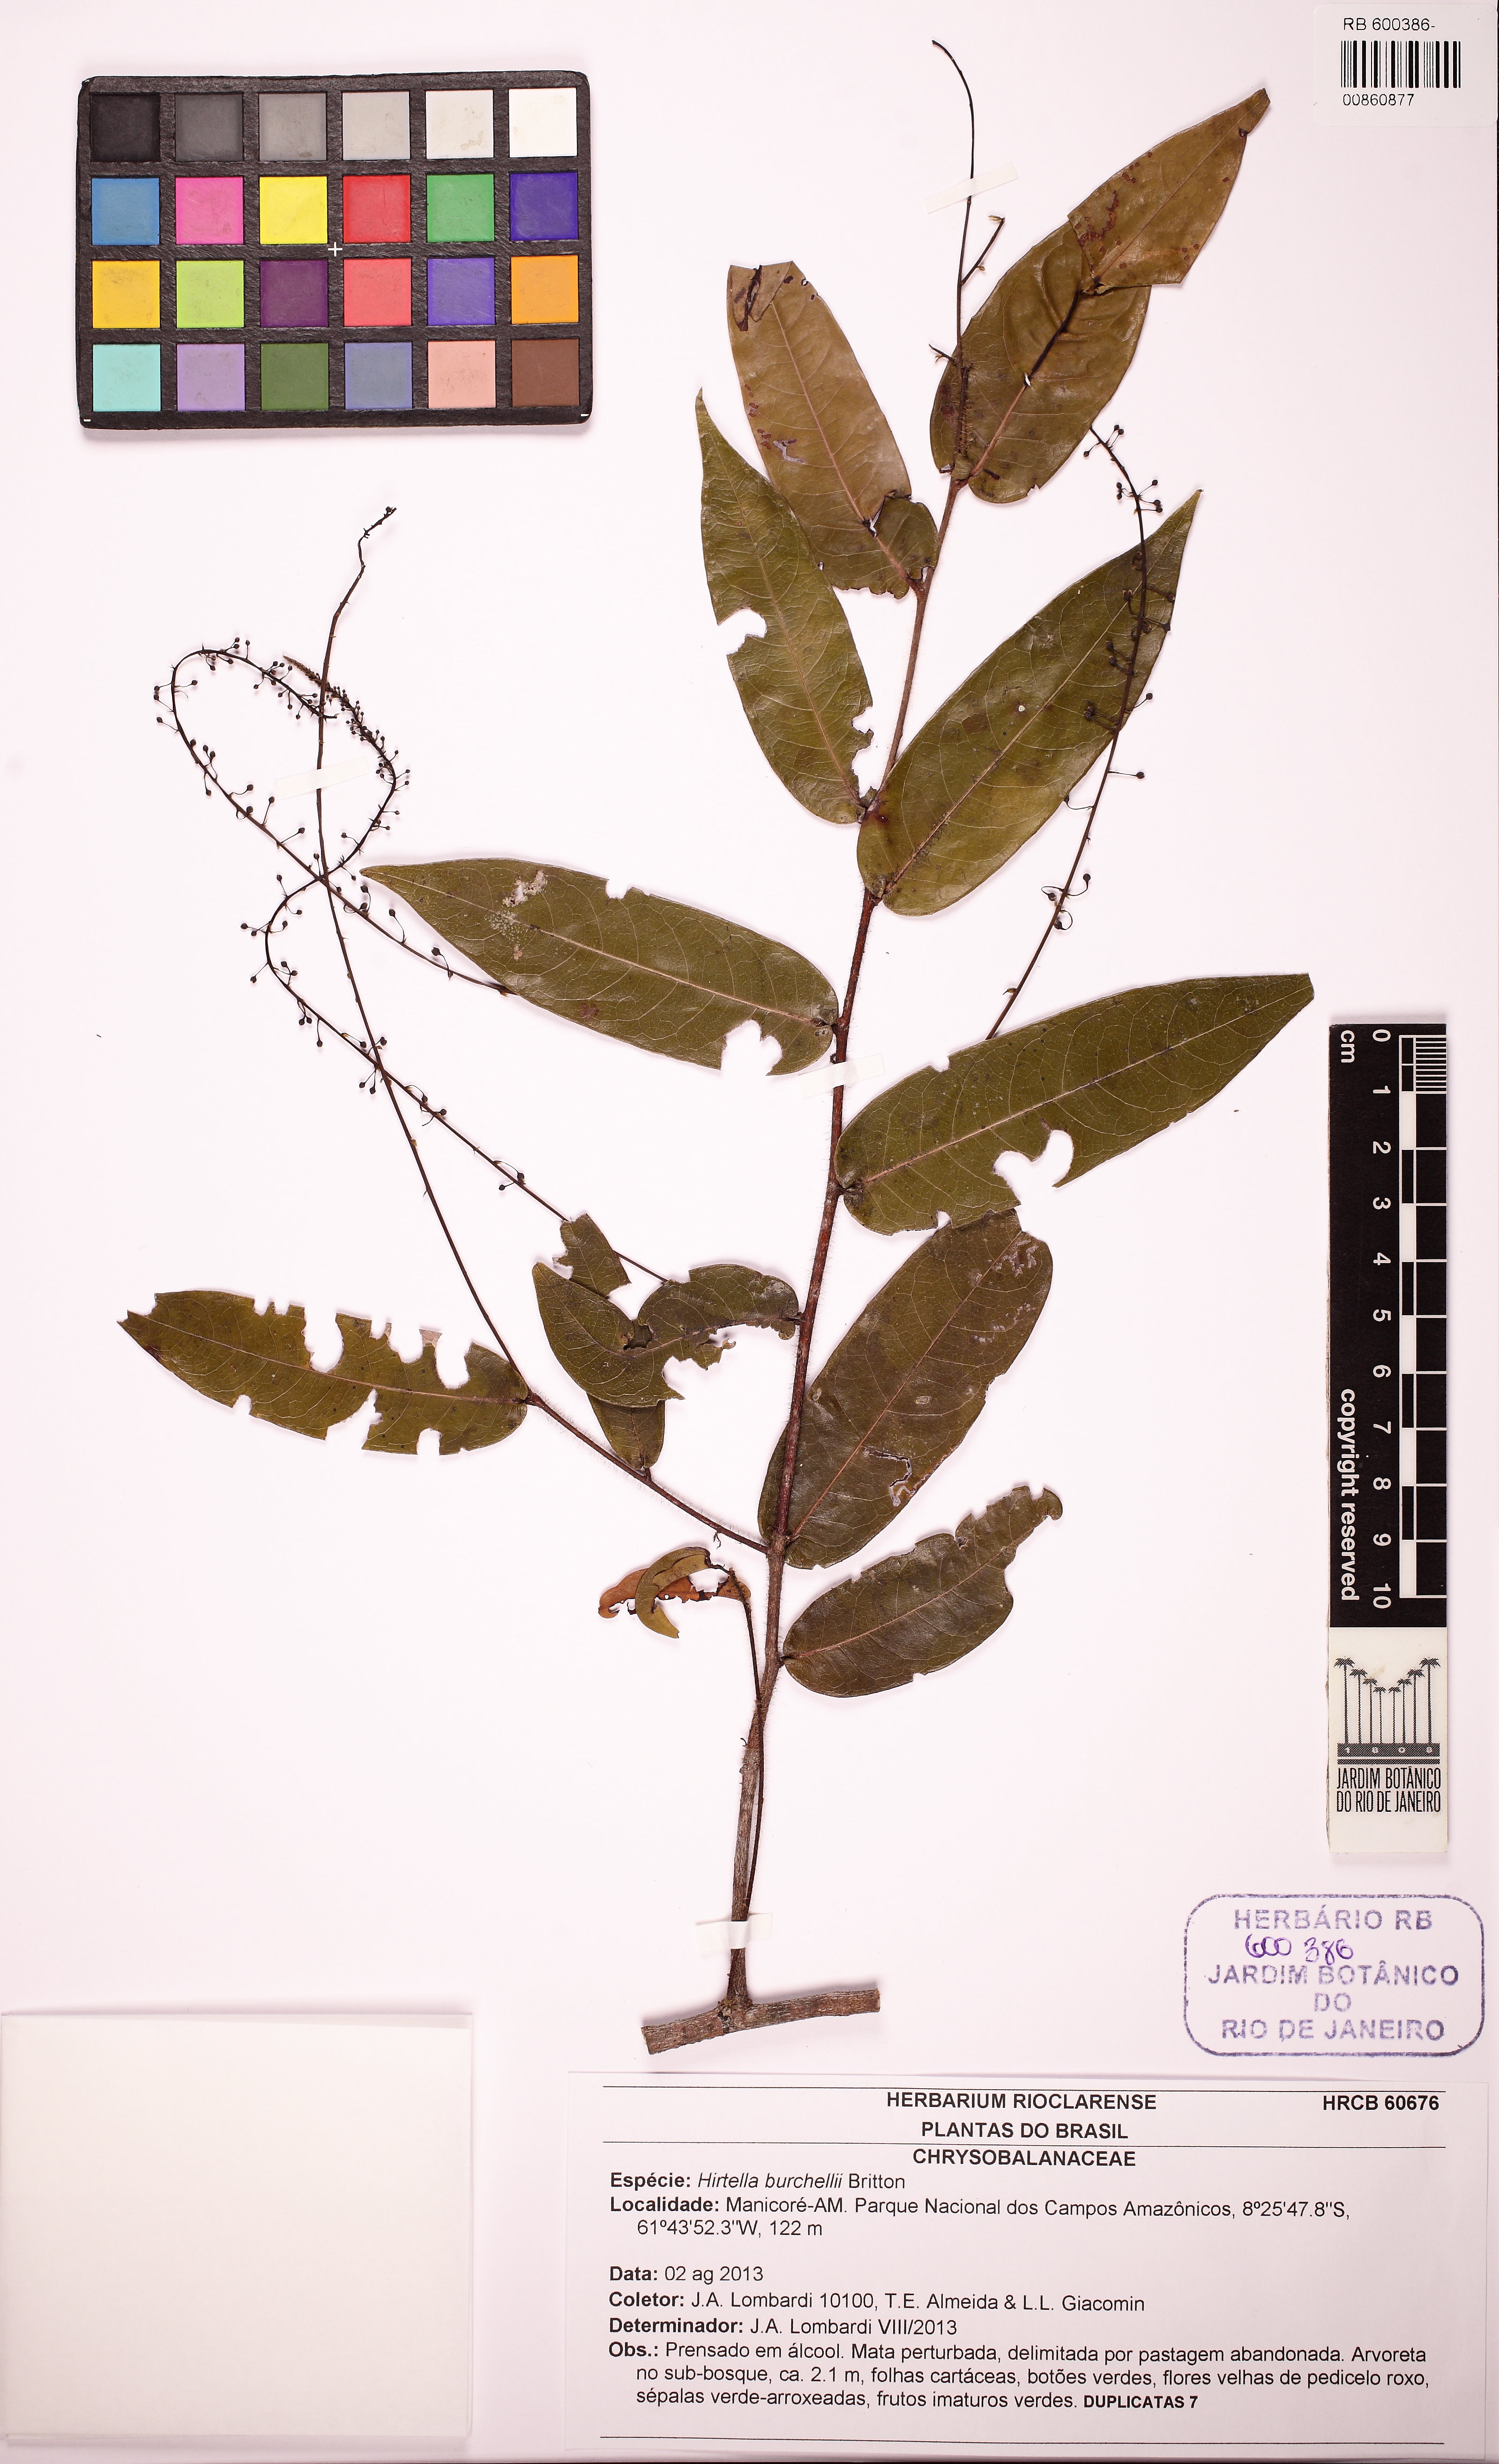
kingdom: Plantae
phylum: Tracheophyta
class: Magnoliopsida
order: Malpighiales
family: Chrysobalanaceae
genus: Hirtella
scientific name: Hirtella radamii
